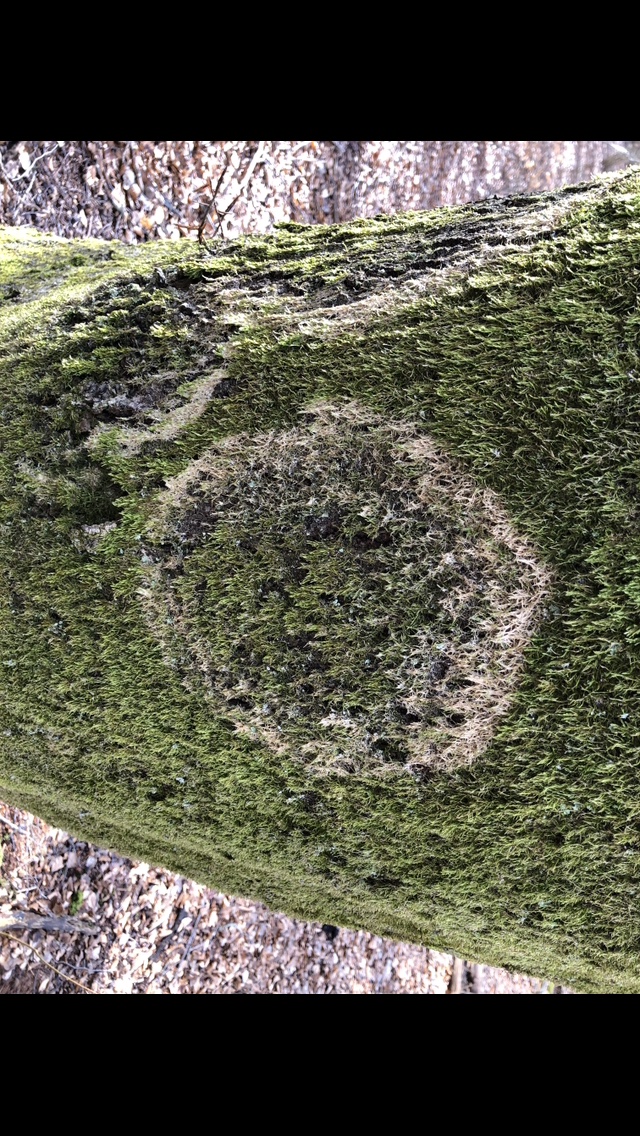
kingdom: Fungi
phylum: Basidiomycota
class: Agaricomycetes
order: Agaricales
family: Chromocyphellaceae
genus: Chromocyphella
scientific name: Chromocyphella muscicola
